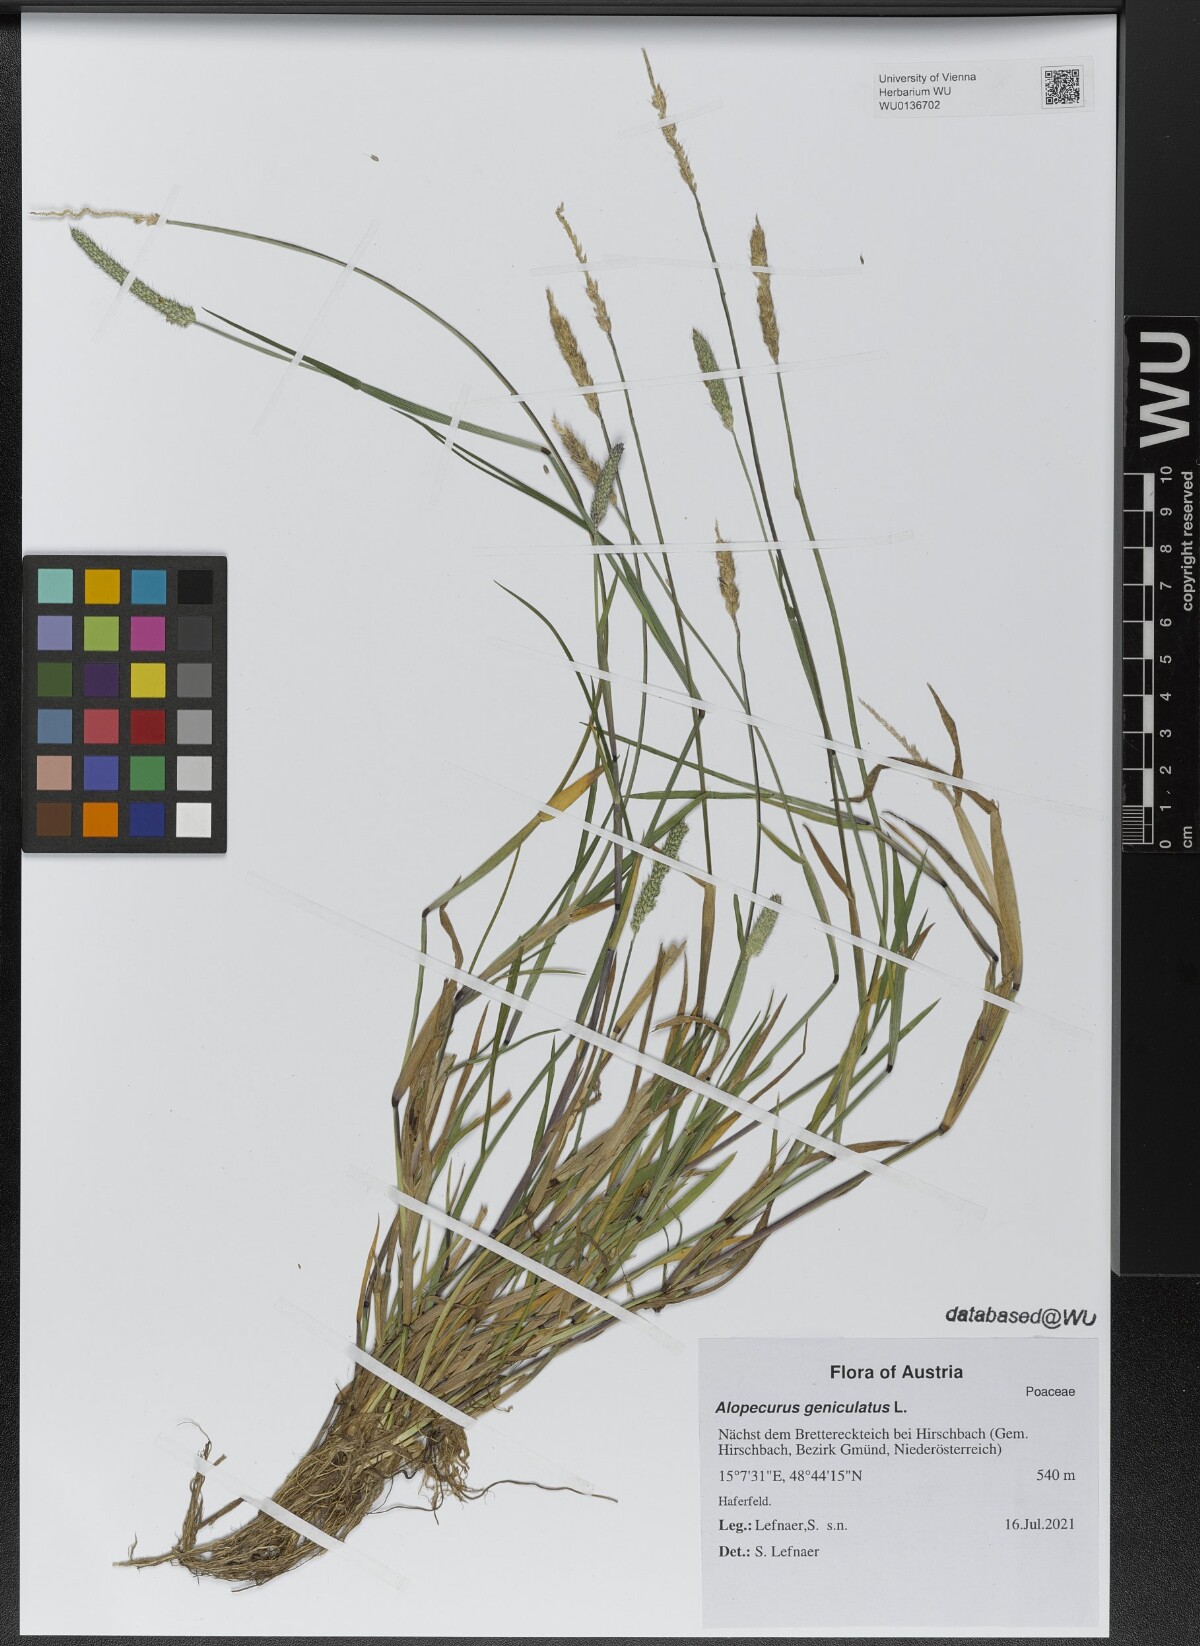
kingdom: Plantae
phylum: Tracheophyta
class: Liliopsida
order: Poales
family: Poaceae
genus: Alopecurus
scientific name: Alopecurus geniculatus
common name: Water foxtail
